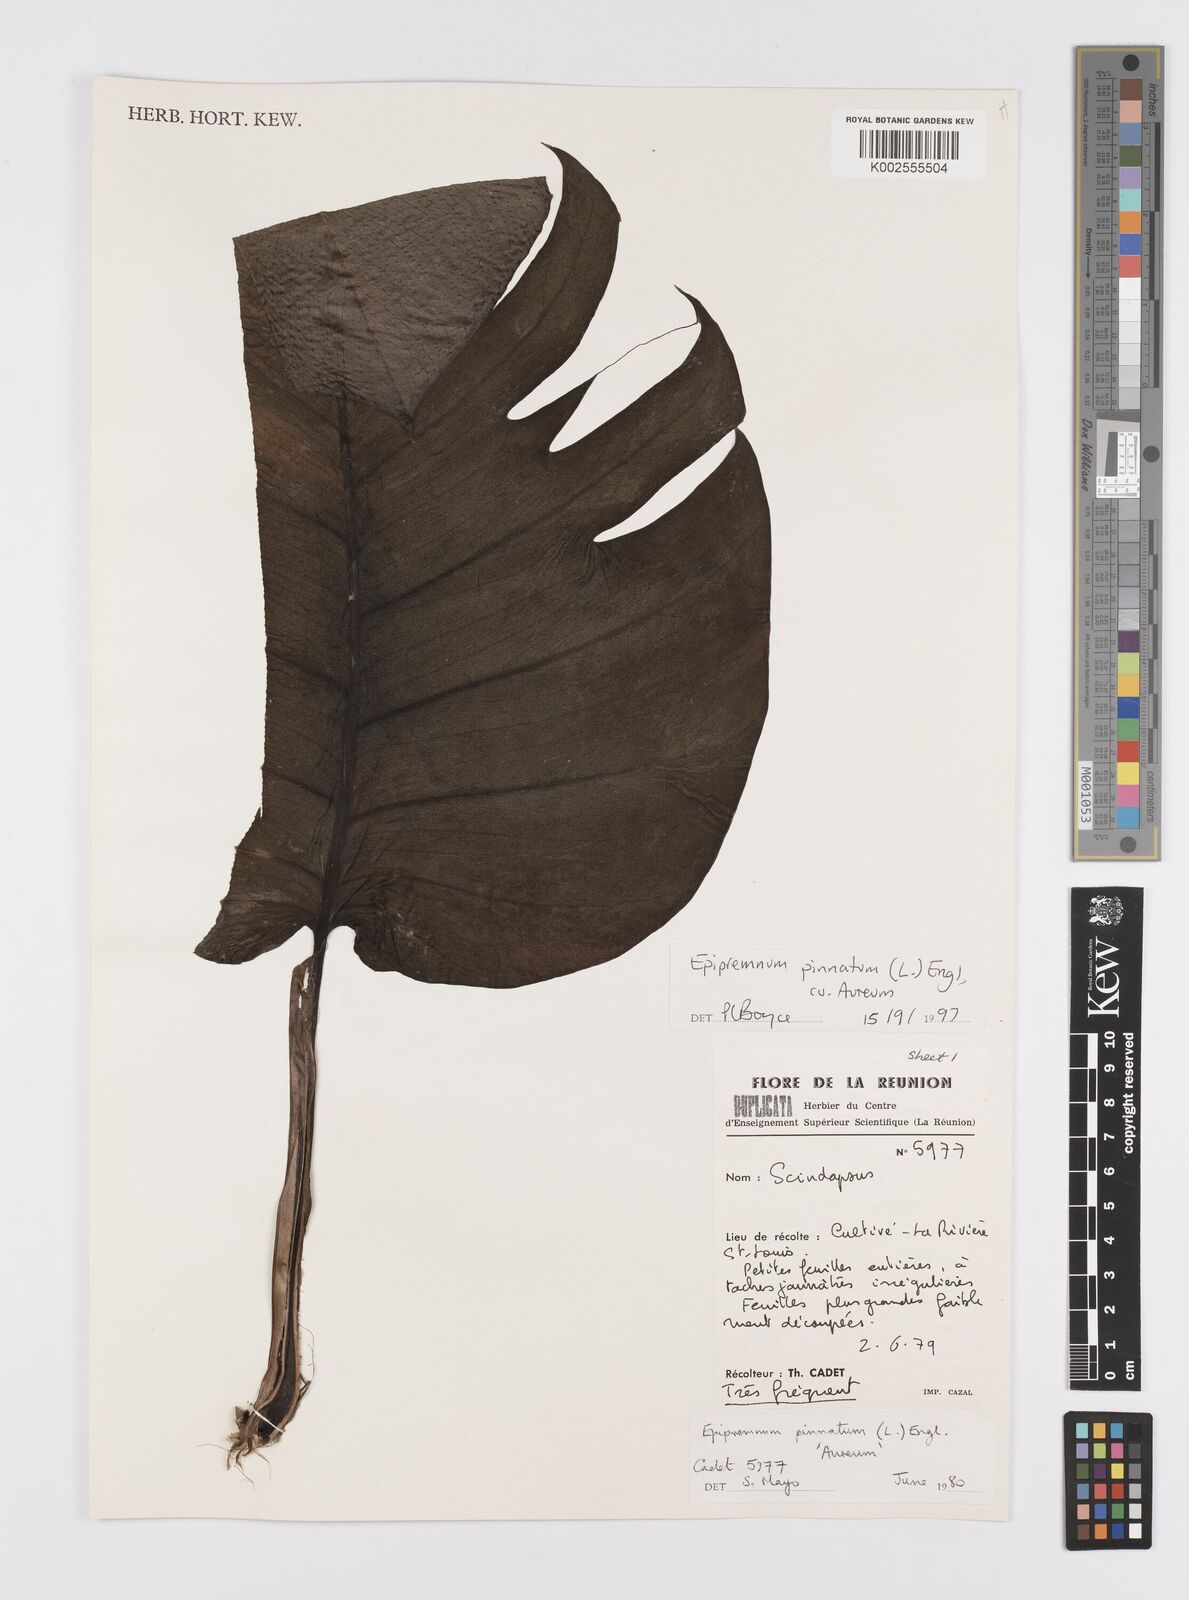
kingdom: Plantae
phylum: Tracheophyta
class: Liliopsida
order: Alismatales
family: Araceae
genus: Epipremnum
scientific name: Epipremnum aureum
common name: Golden hunter's-robe
